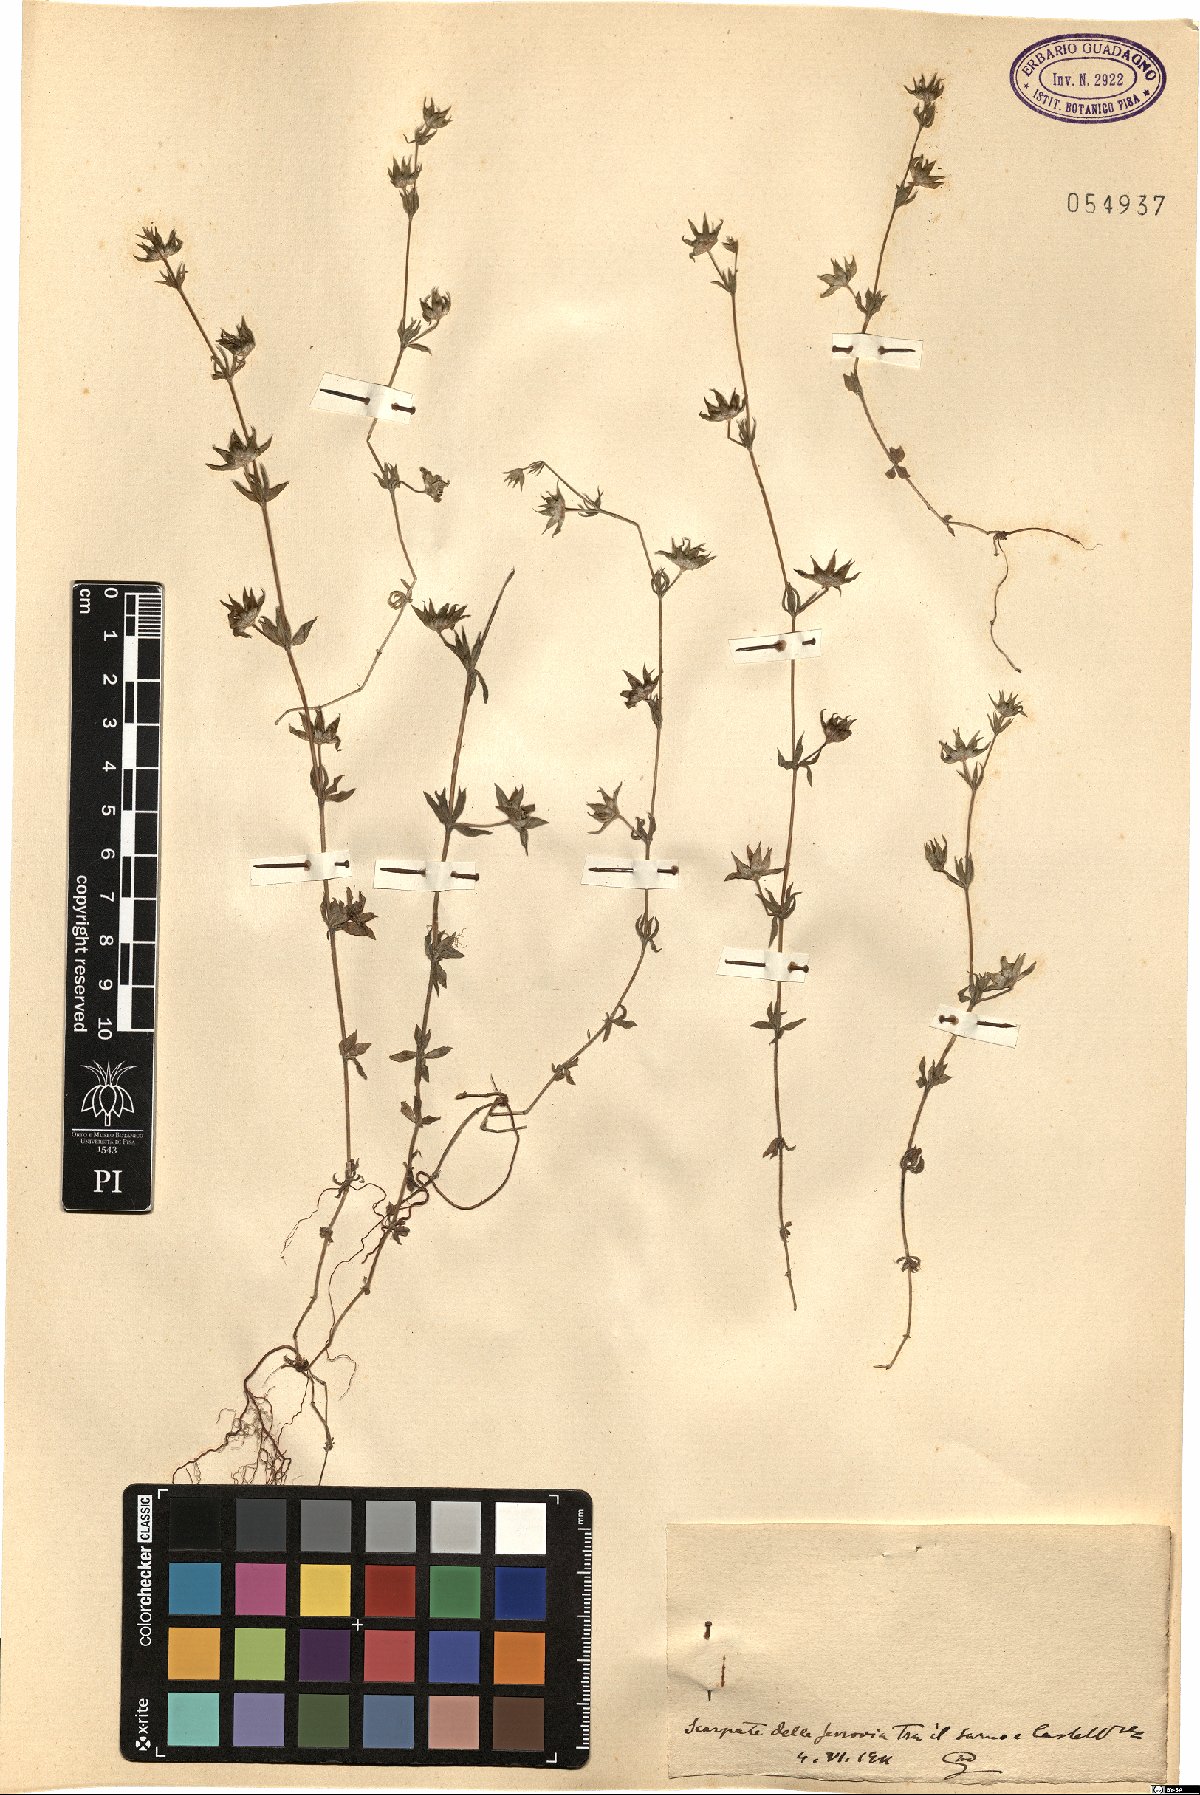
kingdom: Plantae
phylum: Tracheophyta
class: Magnoliopsida
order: Gentianales
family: Rubiaceae
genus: Sherardia
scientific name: Sherardia
